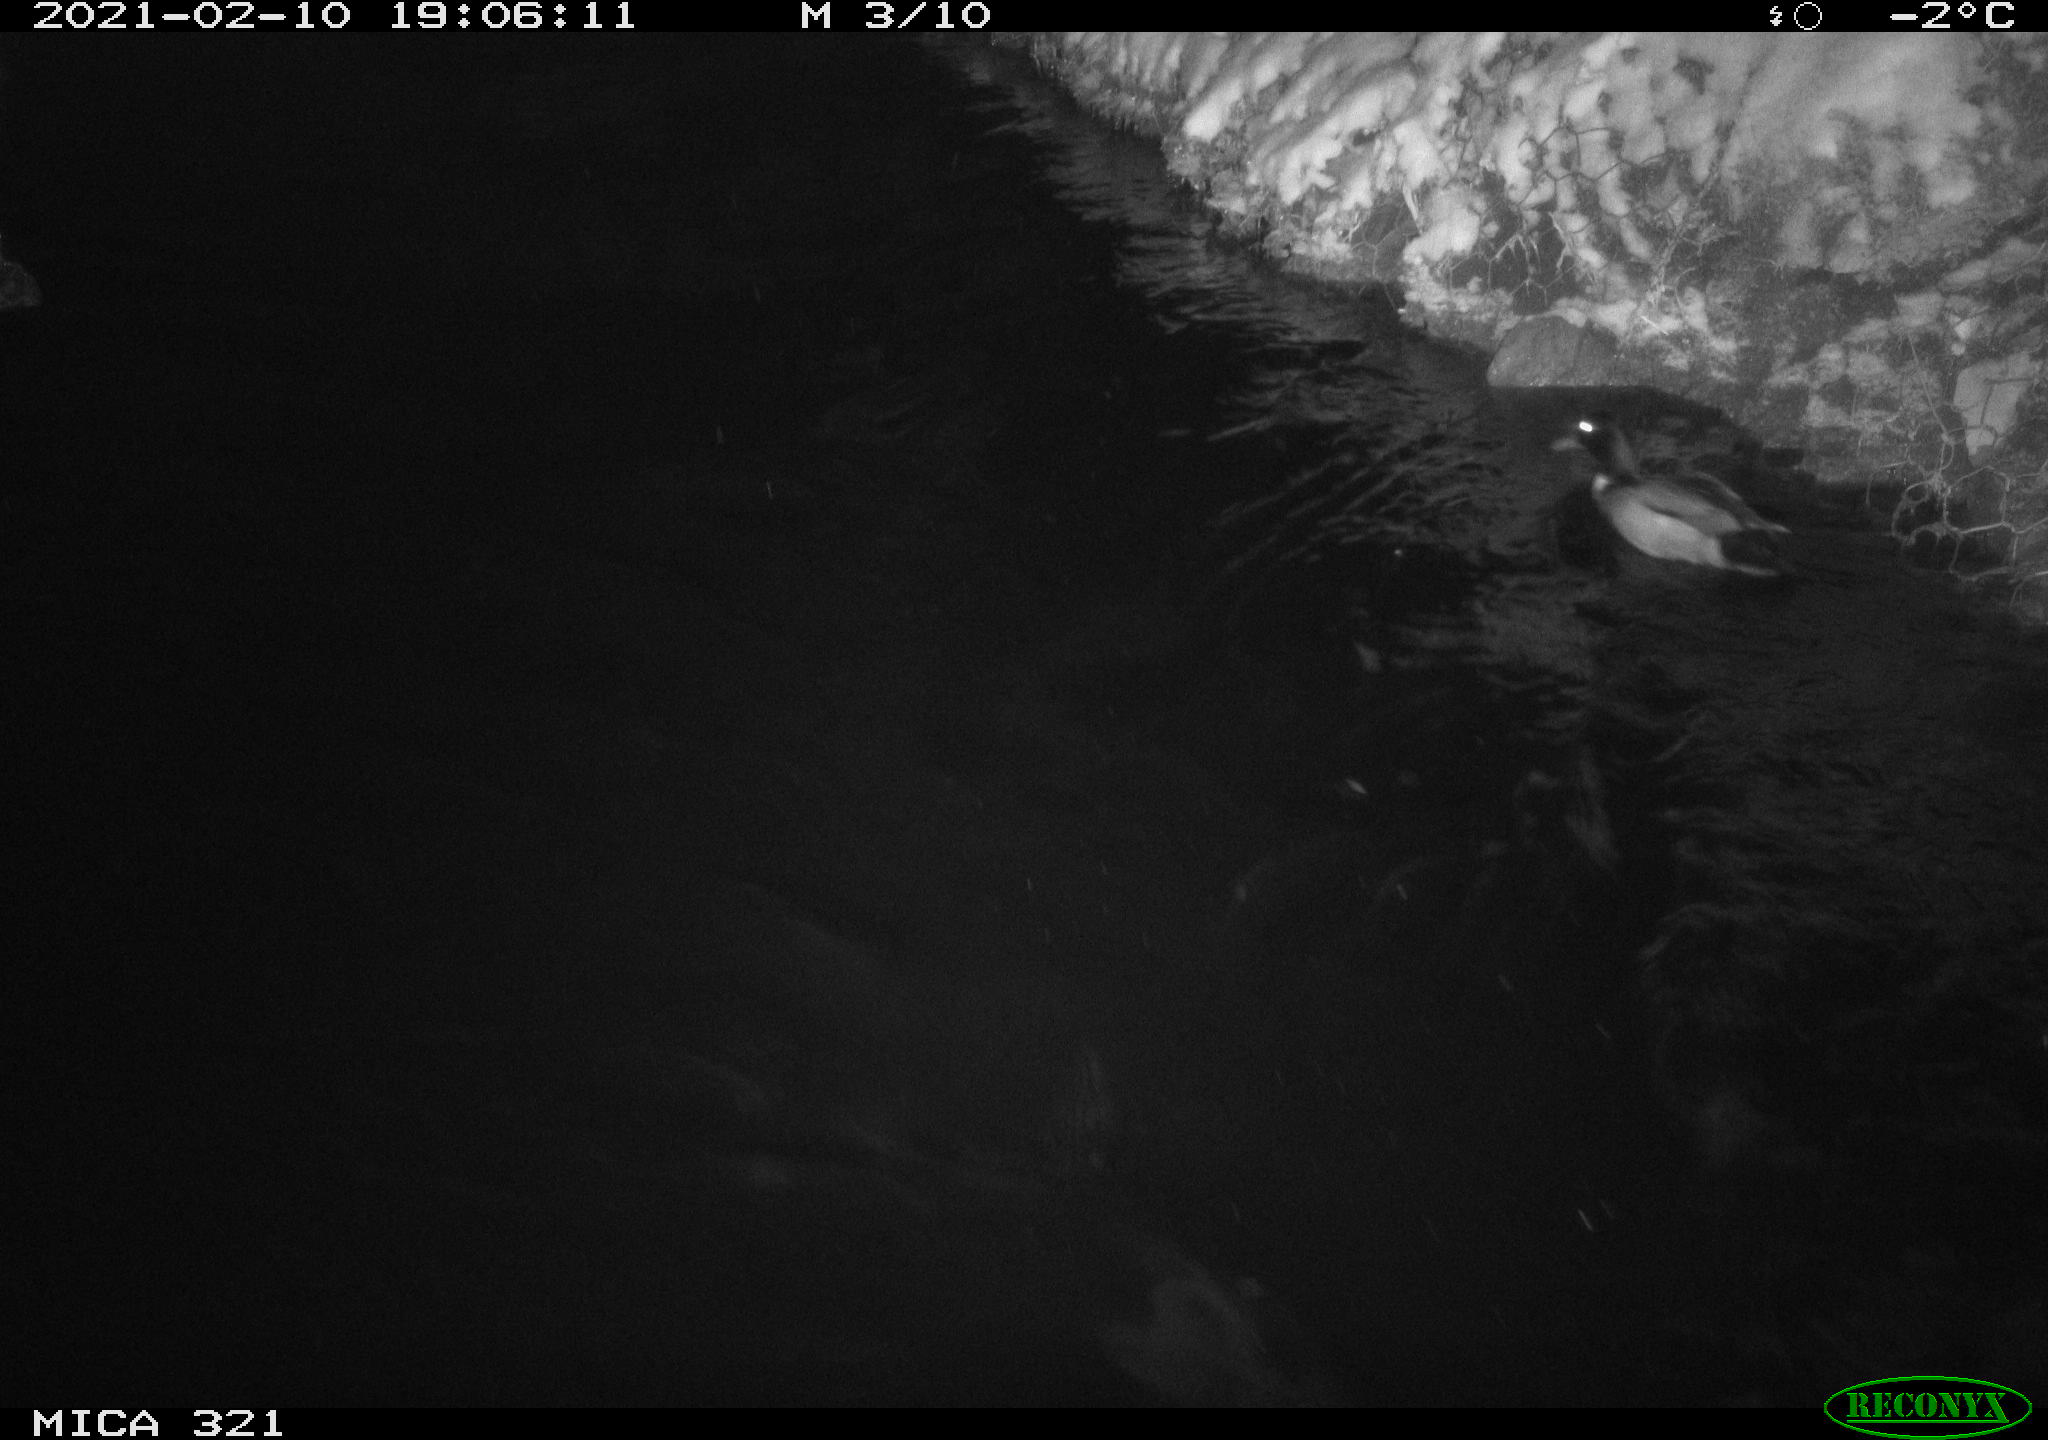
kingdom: Animalia
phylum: Chordata
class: Aves
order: Anseriformes
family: Anatidae
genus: Anas
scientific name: Anas platyrhynchos
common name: Mallard
